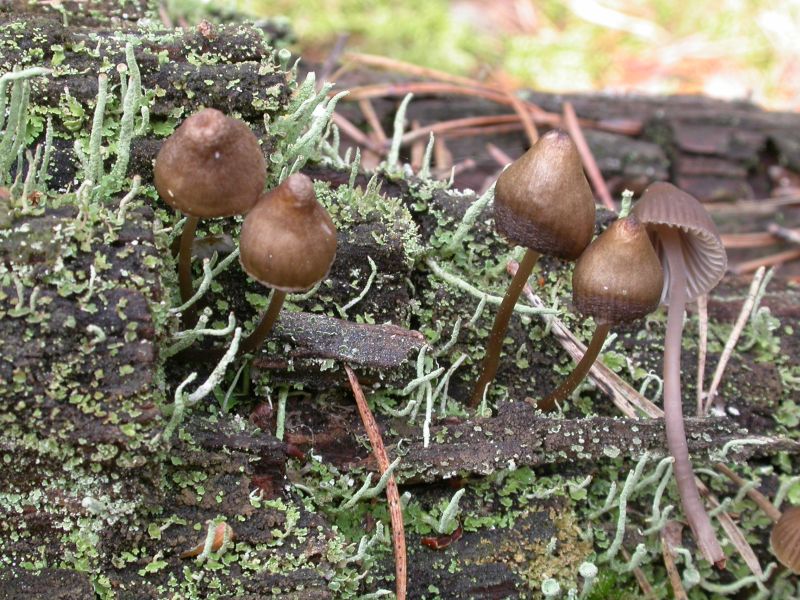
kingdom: Fungi
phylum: Basidiomycota
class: Agaricomycetes
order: Agaricales
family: Mycenaceae
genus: Mycena
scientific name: Mycena stipata
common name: stinkende huesvamp
